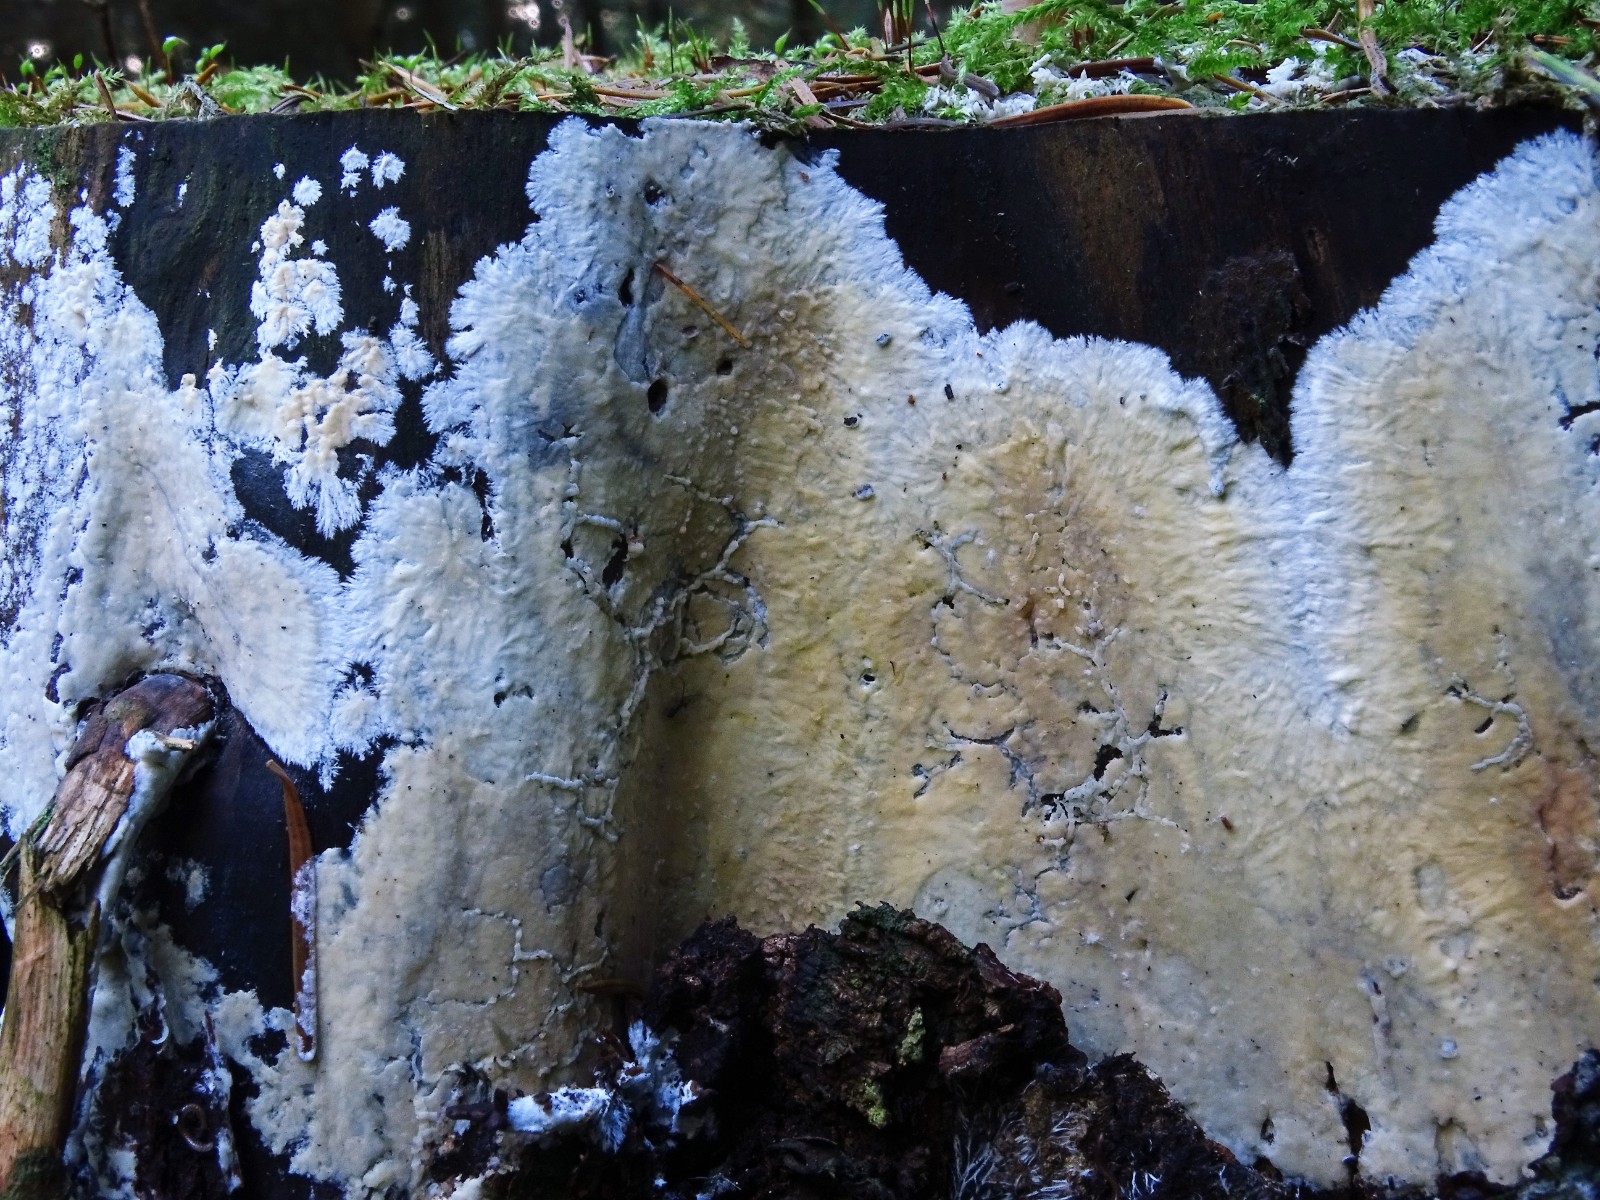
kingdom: Fungi
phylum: Basidiomycota
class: Agaricomycetes
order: Russulales
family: Peniophoraceae
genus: Gloiothele
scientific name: Gloiothele citrina
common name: citronskorpe
